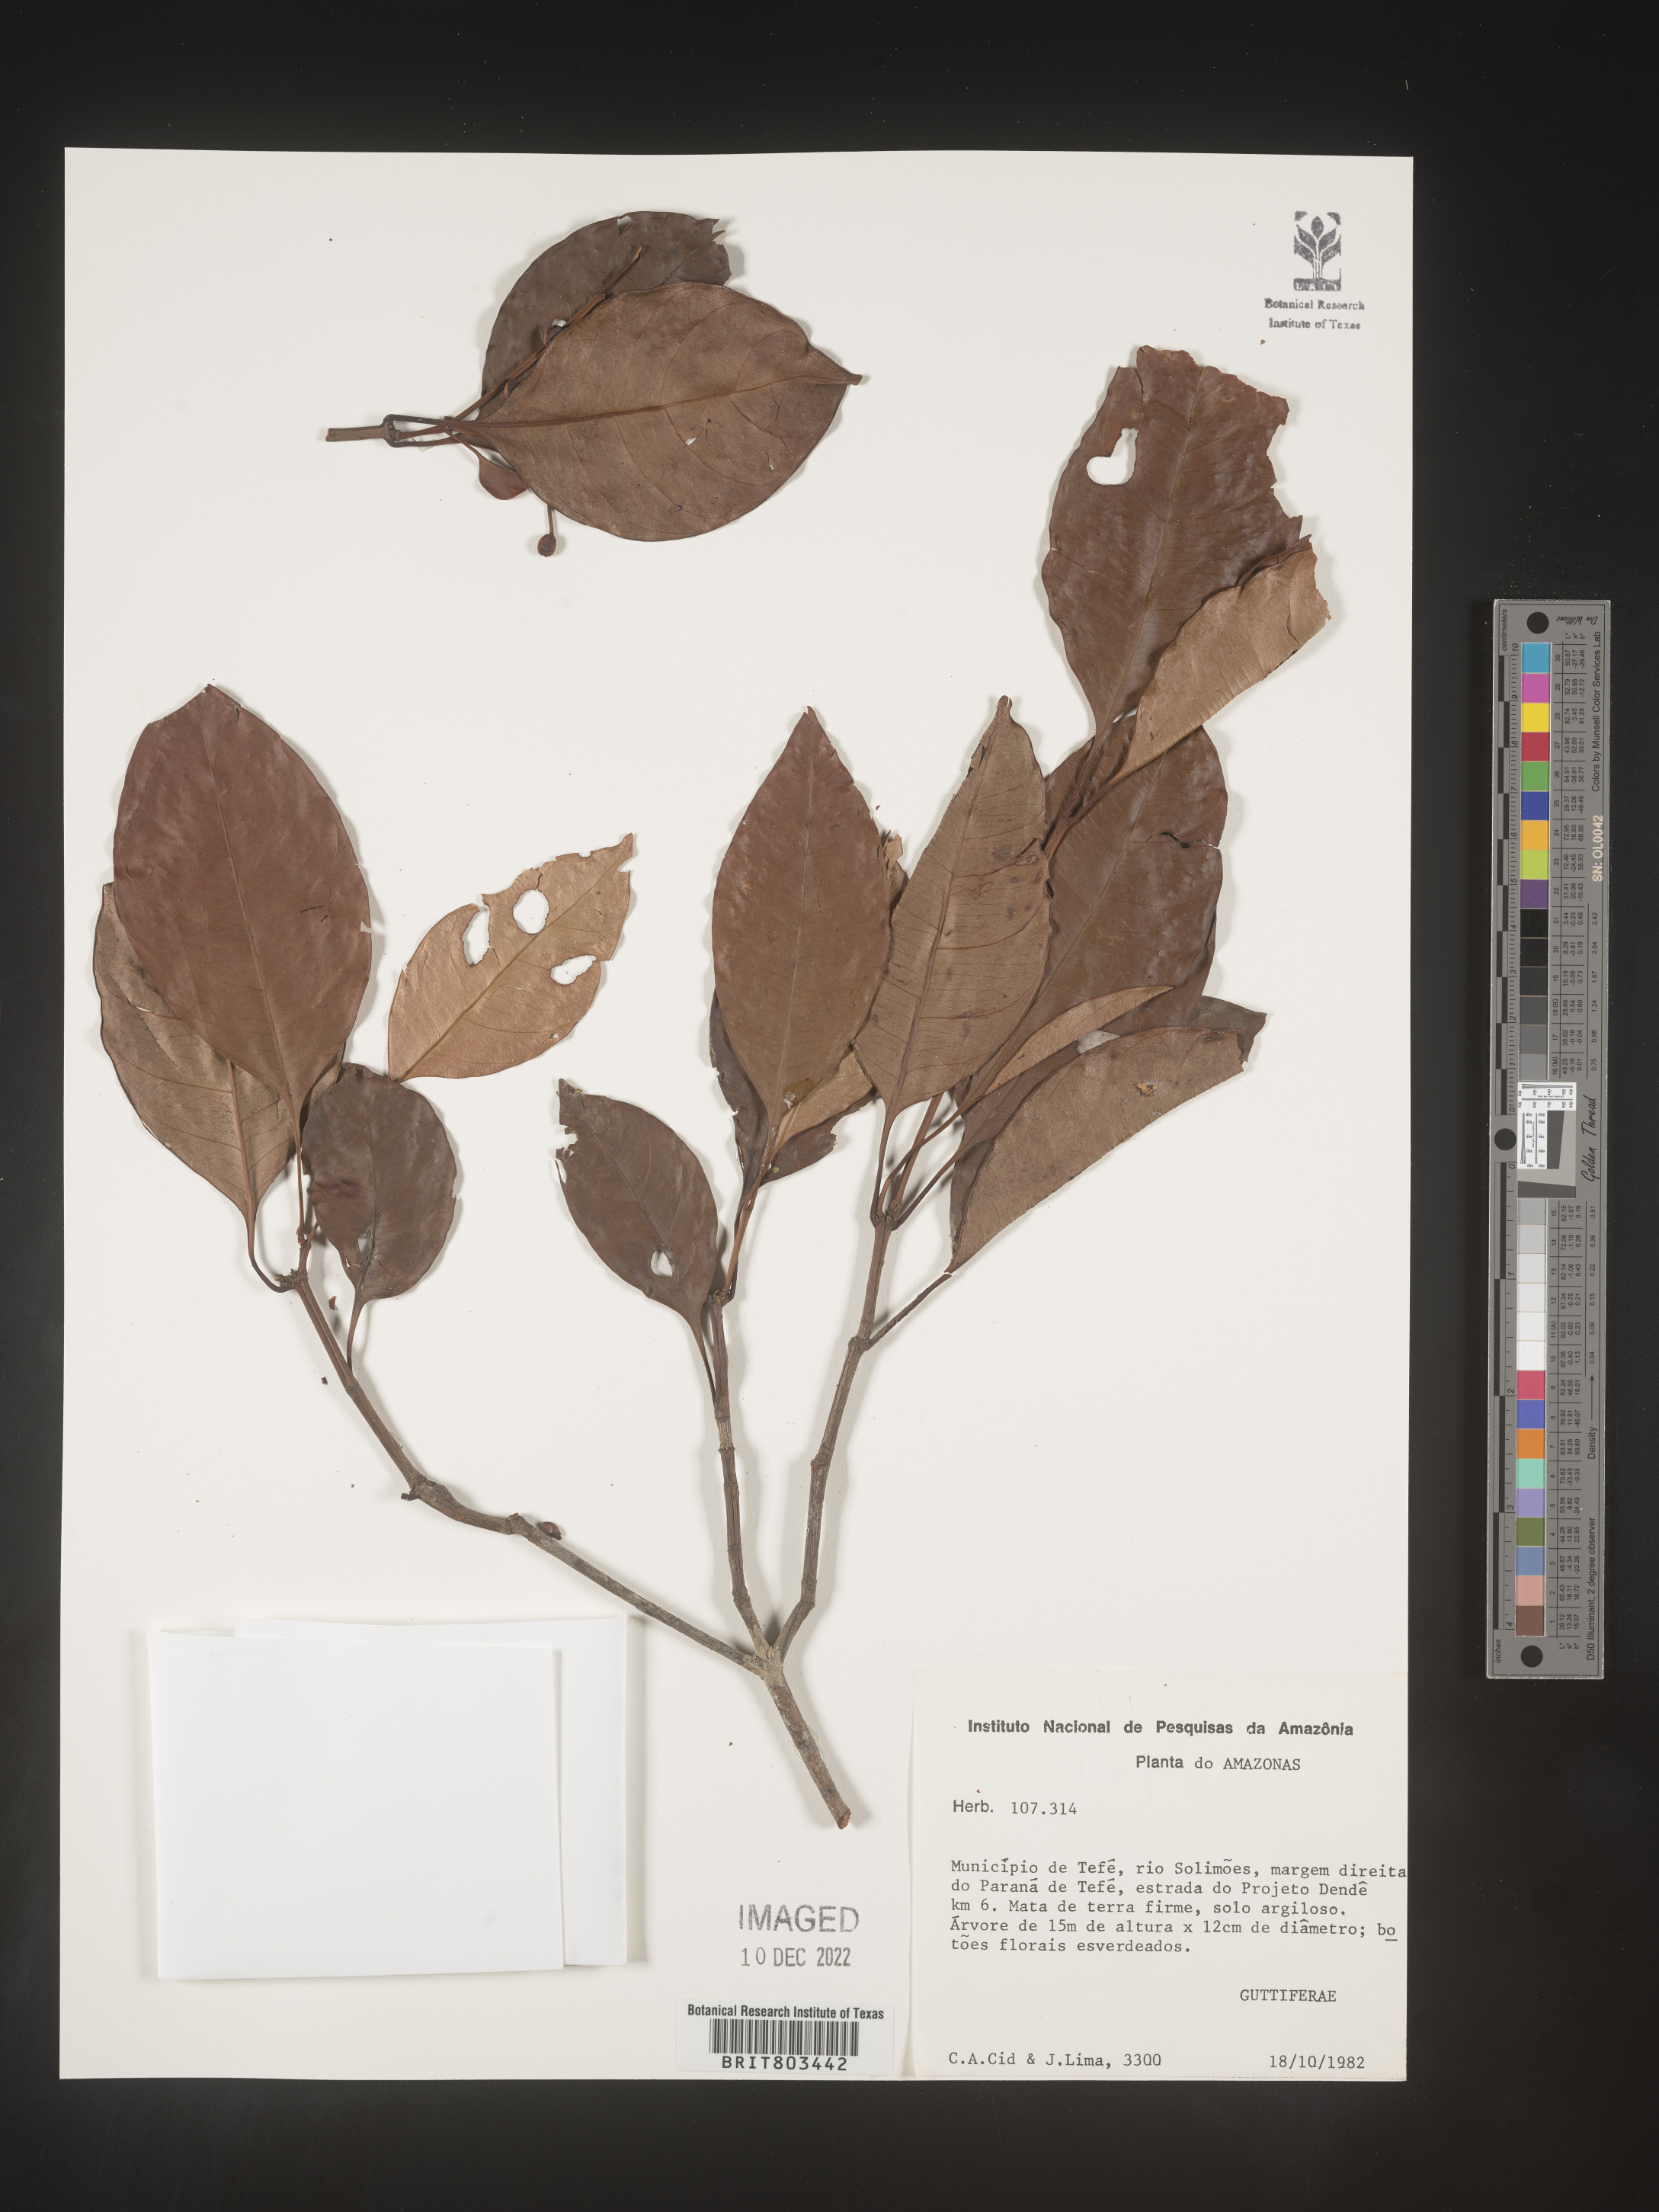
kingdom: Plantae
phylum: Tracheophyta
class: Magnoliopsida
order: Malpighiales
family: Clusiaceae
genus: Tovomita
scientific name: Tovomita
